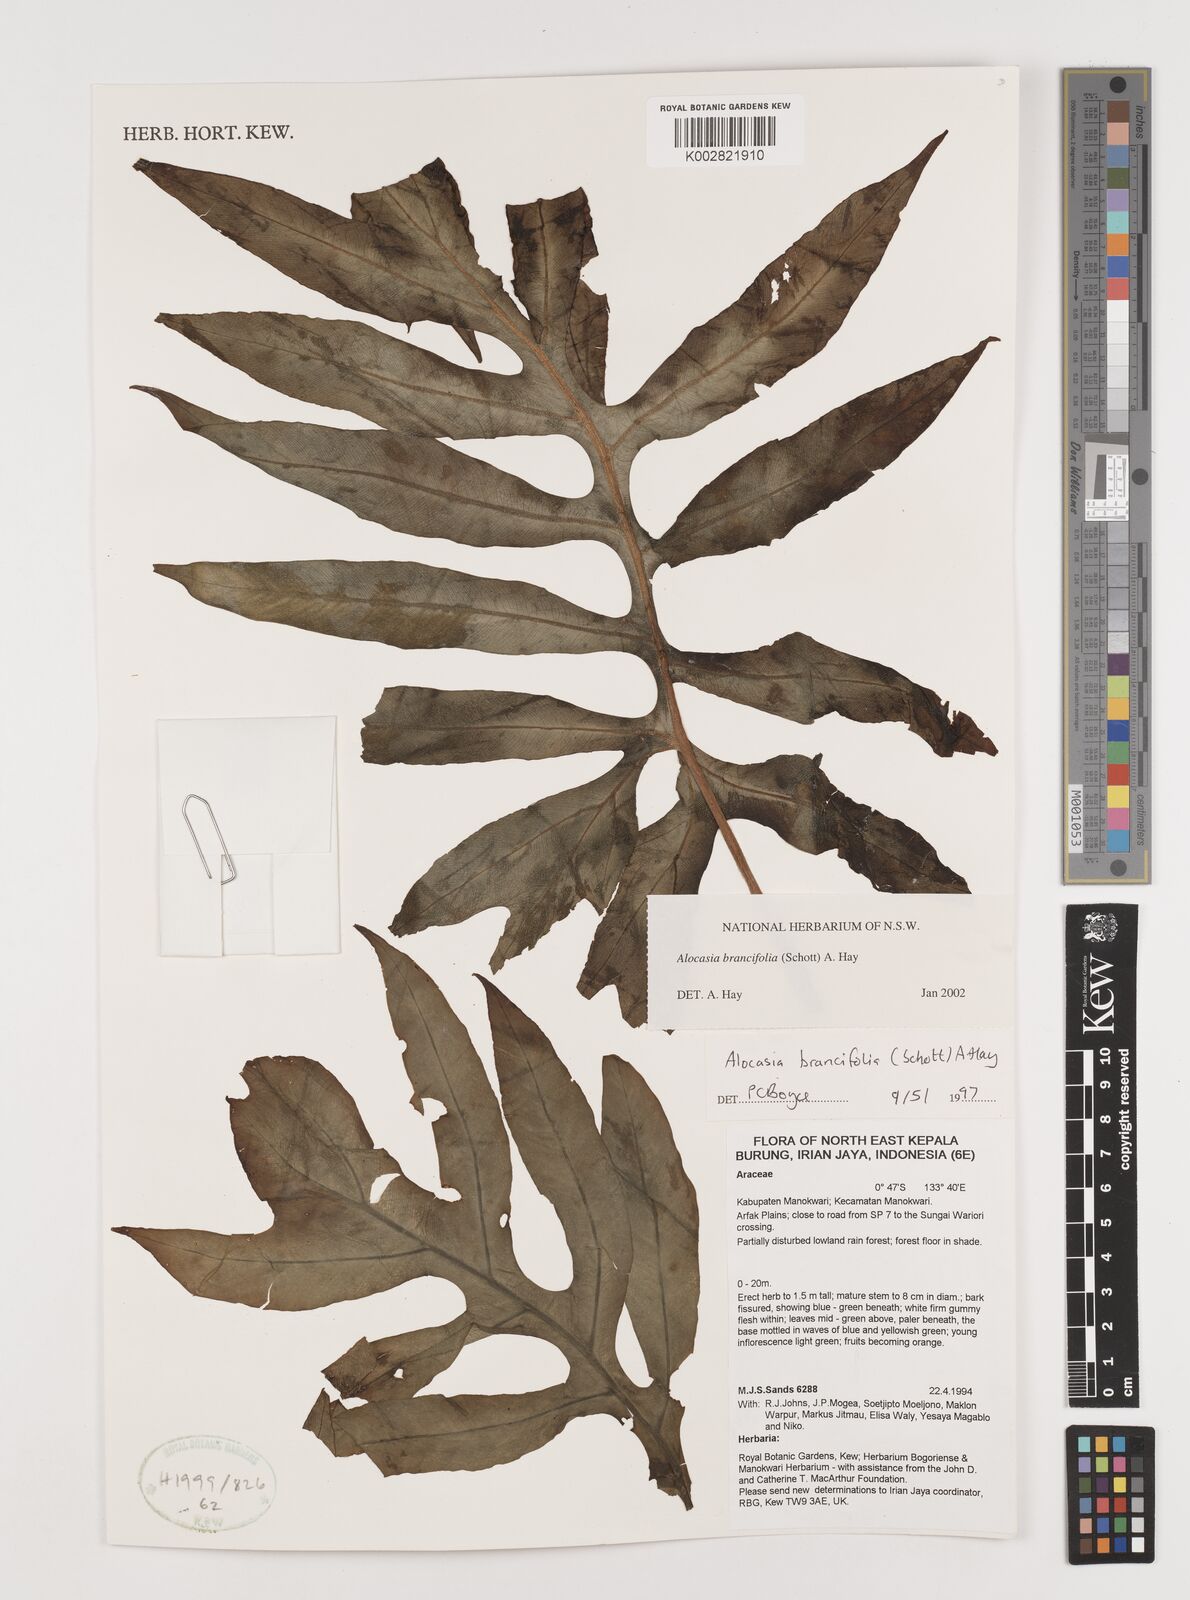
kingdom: Plantae
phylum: Tracheophyta
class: Liliopsida
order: Alismatales
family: Araceae
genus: Alocasia
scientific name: Alocasia brancifolia
